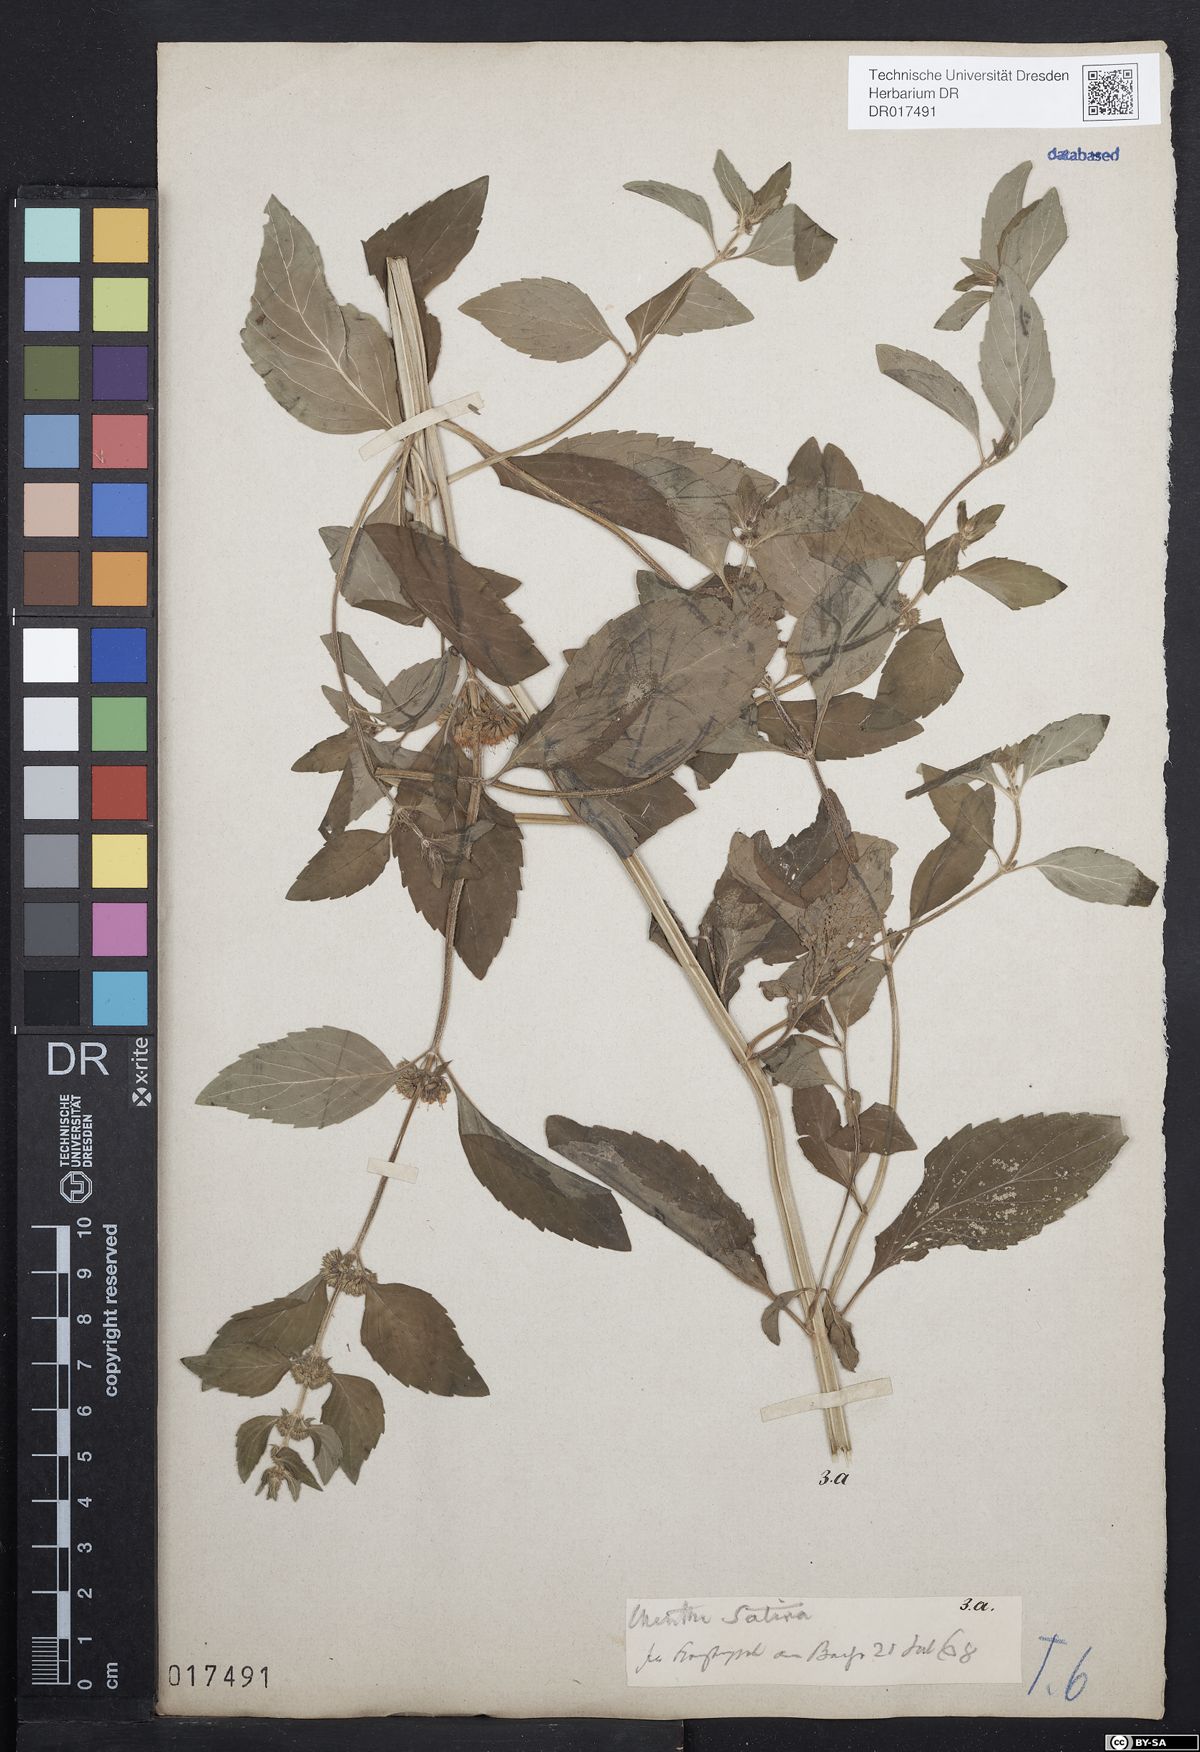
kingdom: Plantae
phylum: Tracheophyta
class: Magnoliopsida
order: Lamiales
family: Lamiaceae
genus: Mentha
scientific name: Mentha verticillata
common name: Mint
